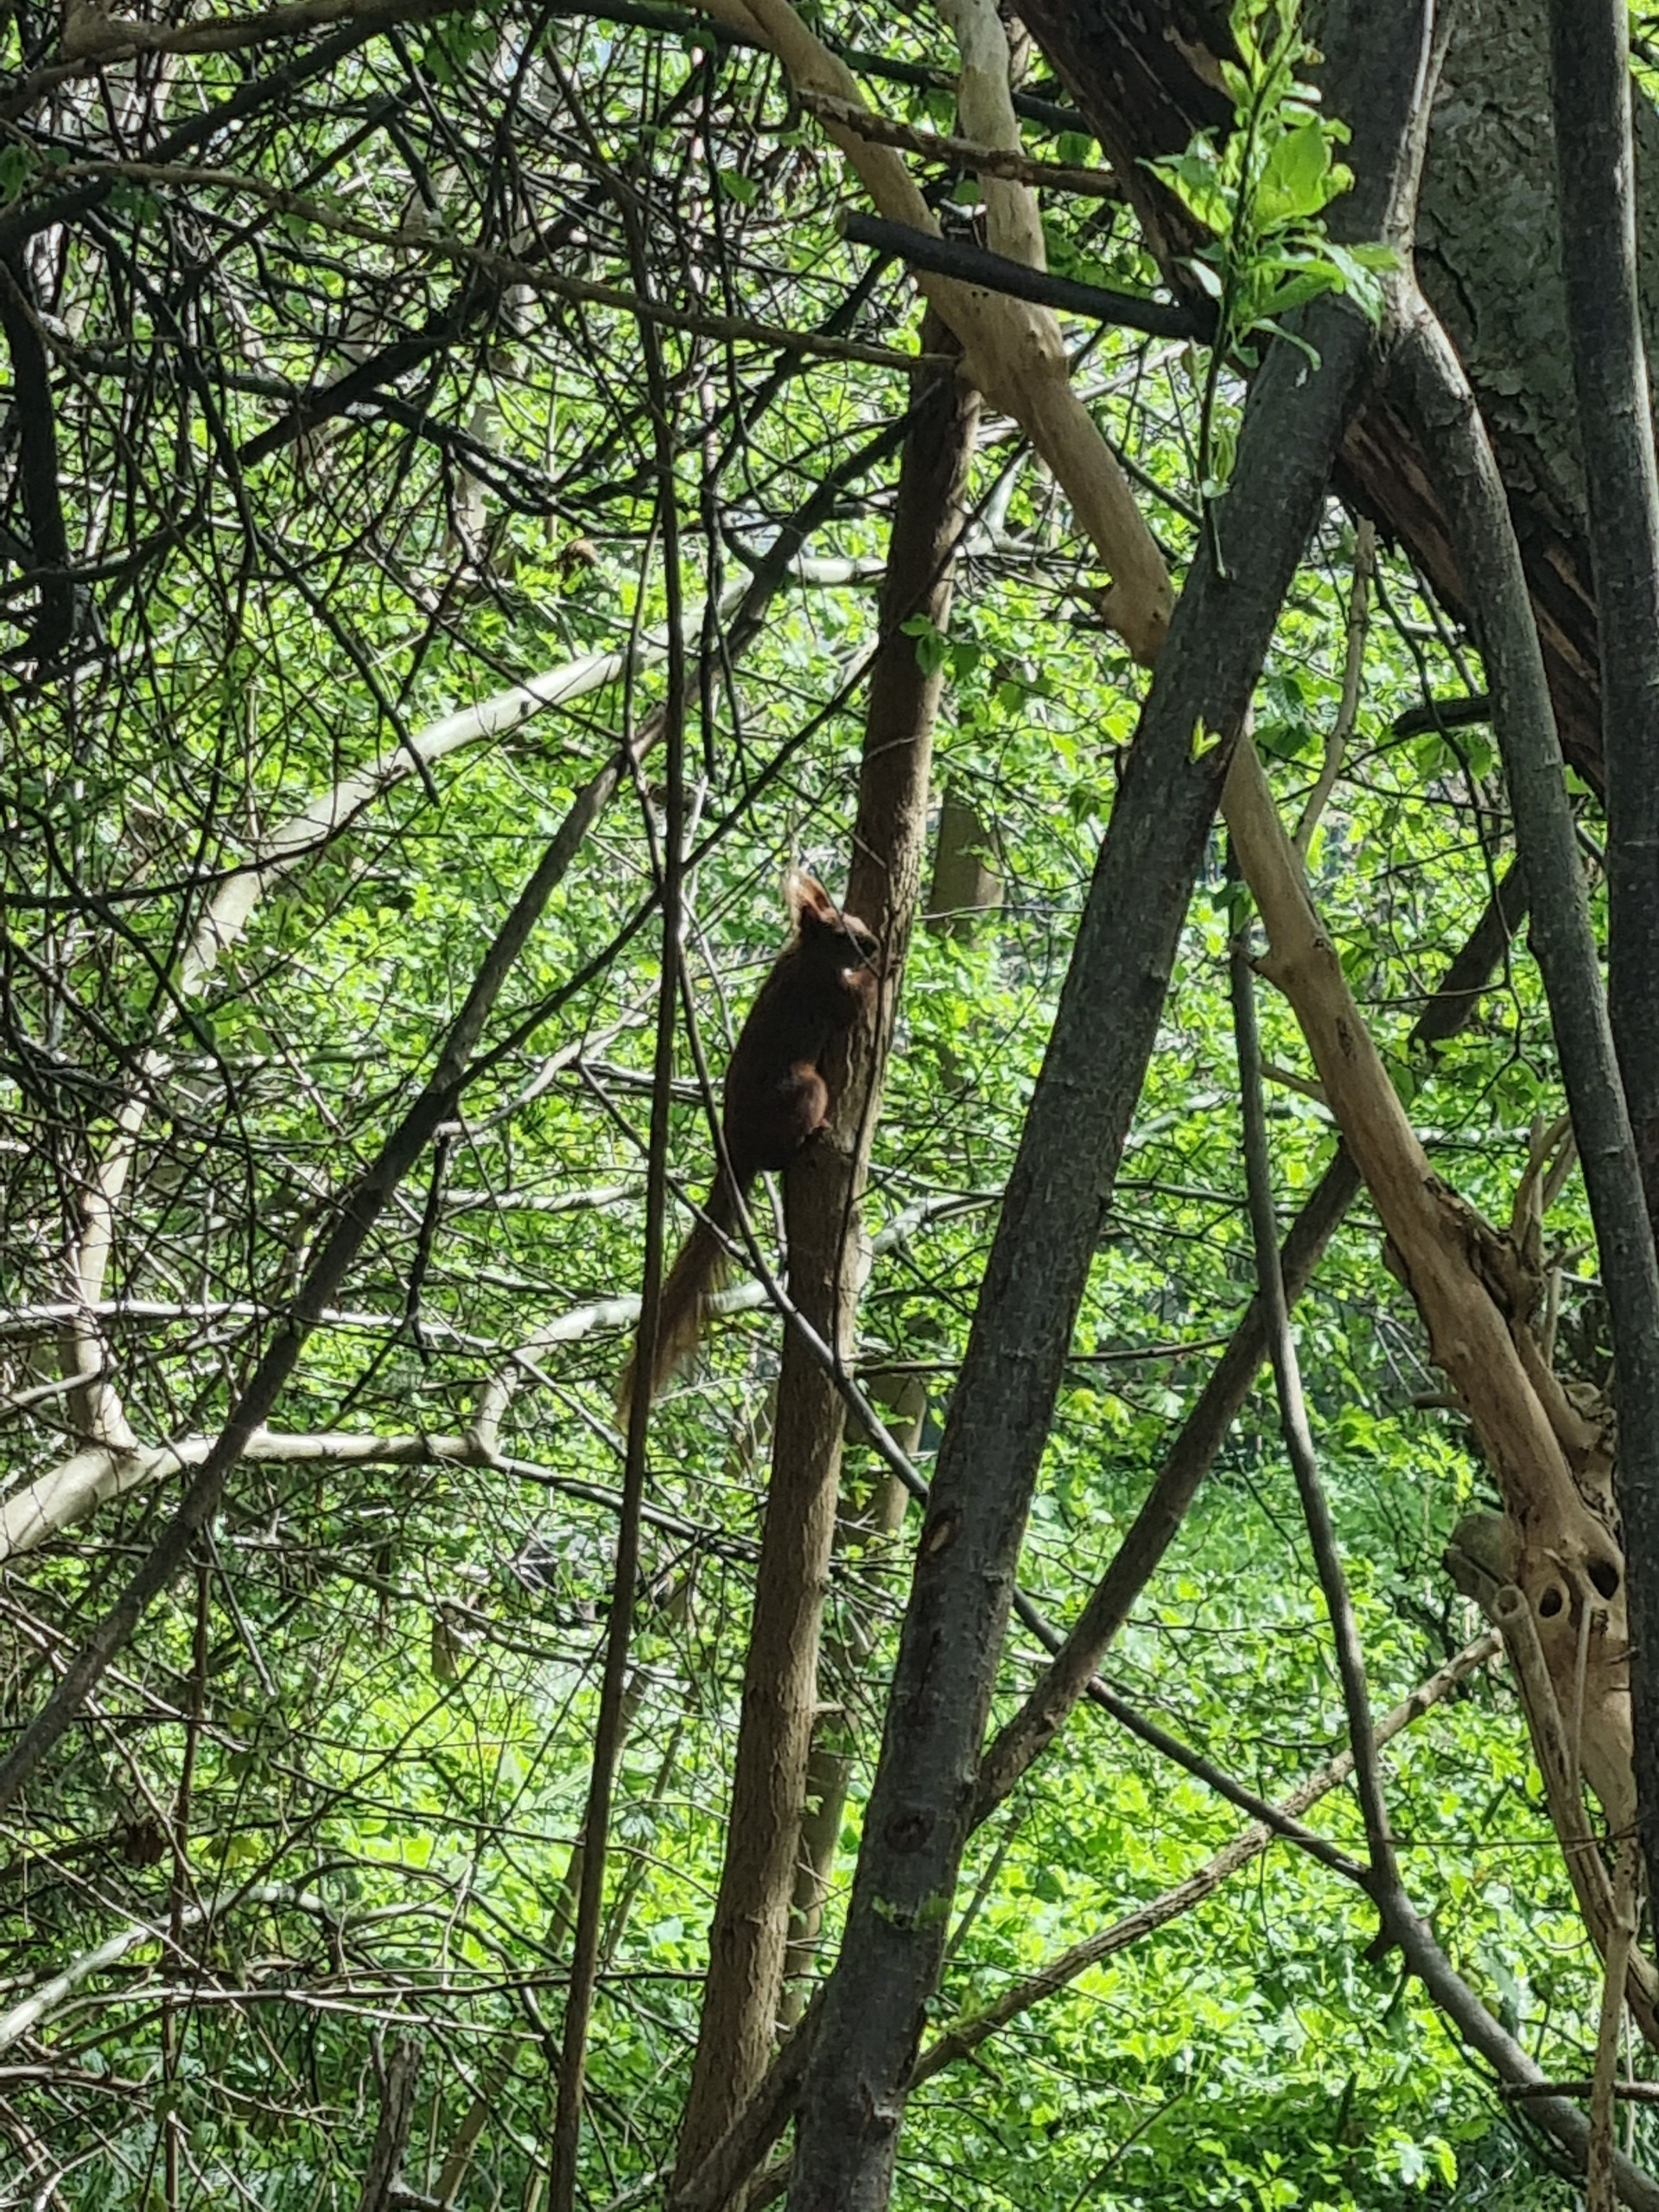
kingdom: Animalia
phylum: Chordata
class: Mammalia
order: Rodentia
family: Sciuridae
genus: Sciurus
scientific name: Sciurus vulgaris
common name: Egern
